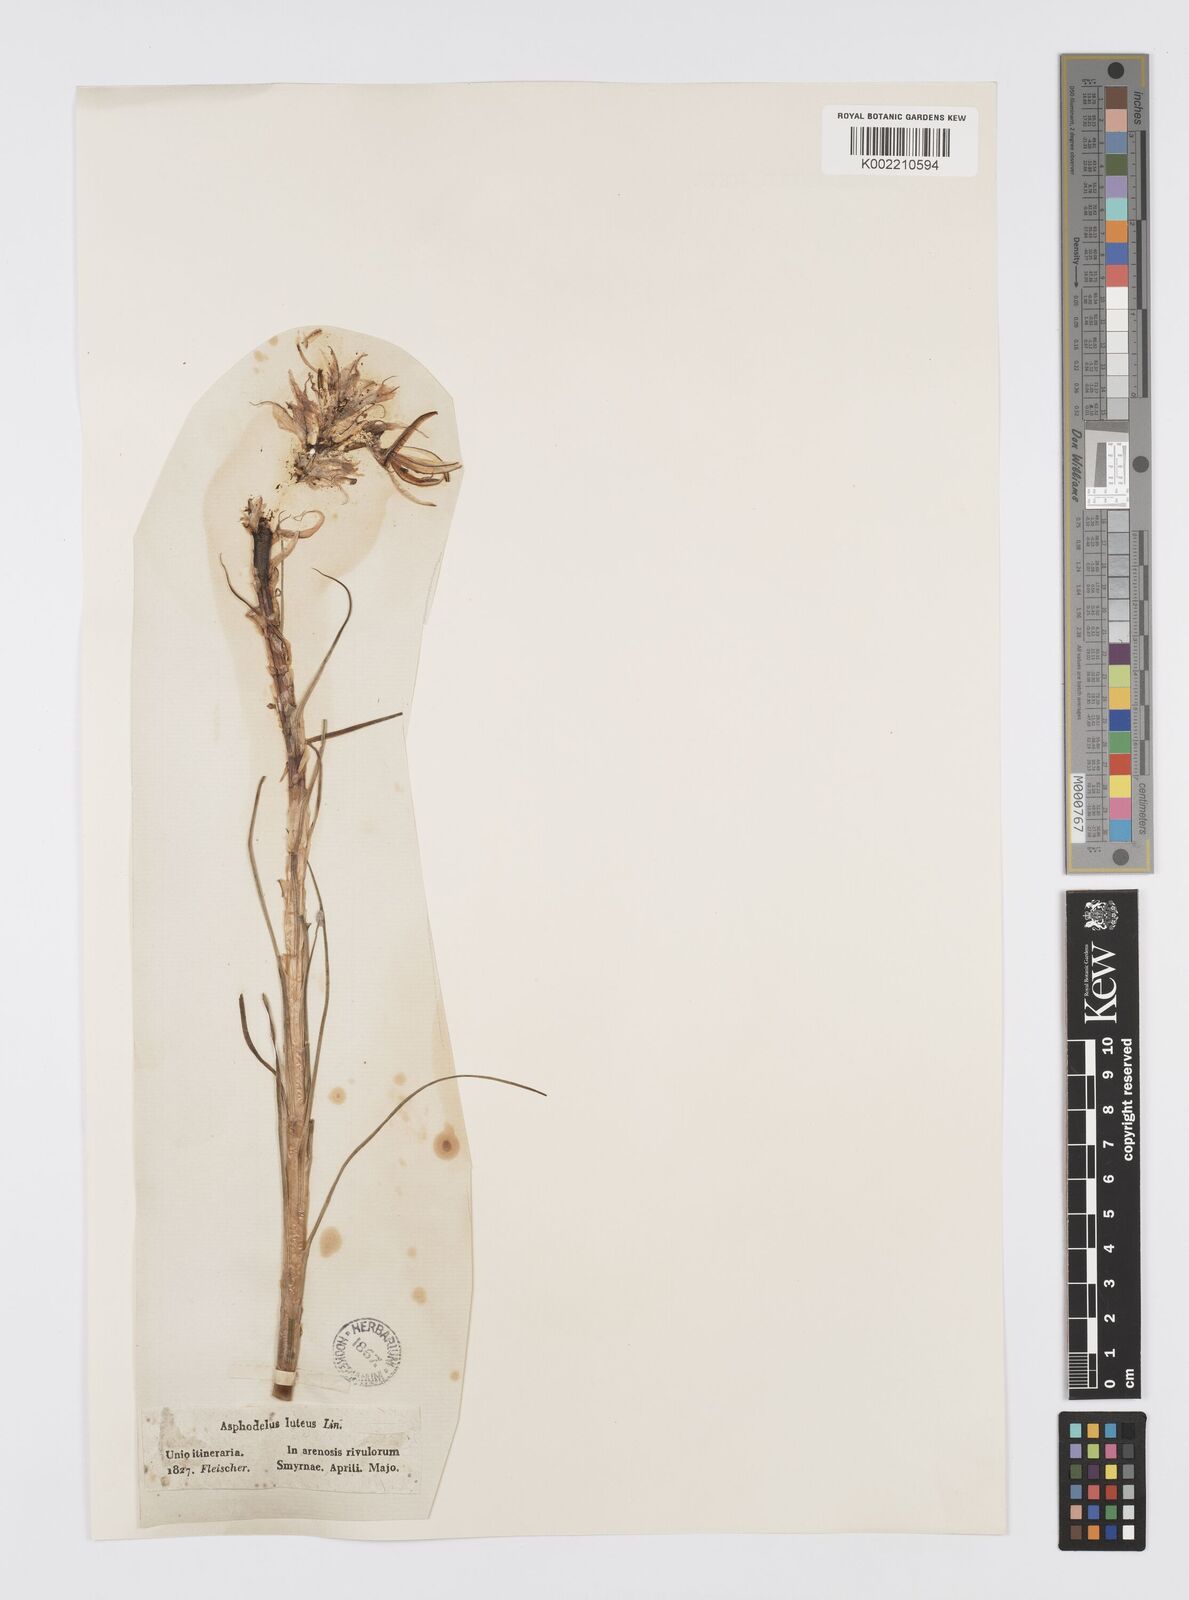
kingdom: Plantae
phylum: Tracheophyta
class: Liliopsida
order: Asparagales
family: Asphodelaceae
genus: Asphodeline
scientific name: Asphodeline lutea
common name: Yellow asphodel
